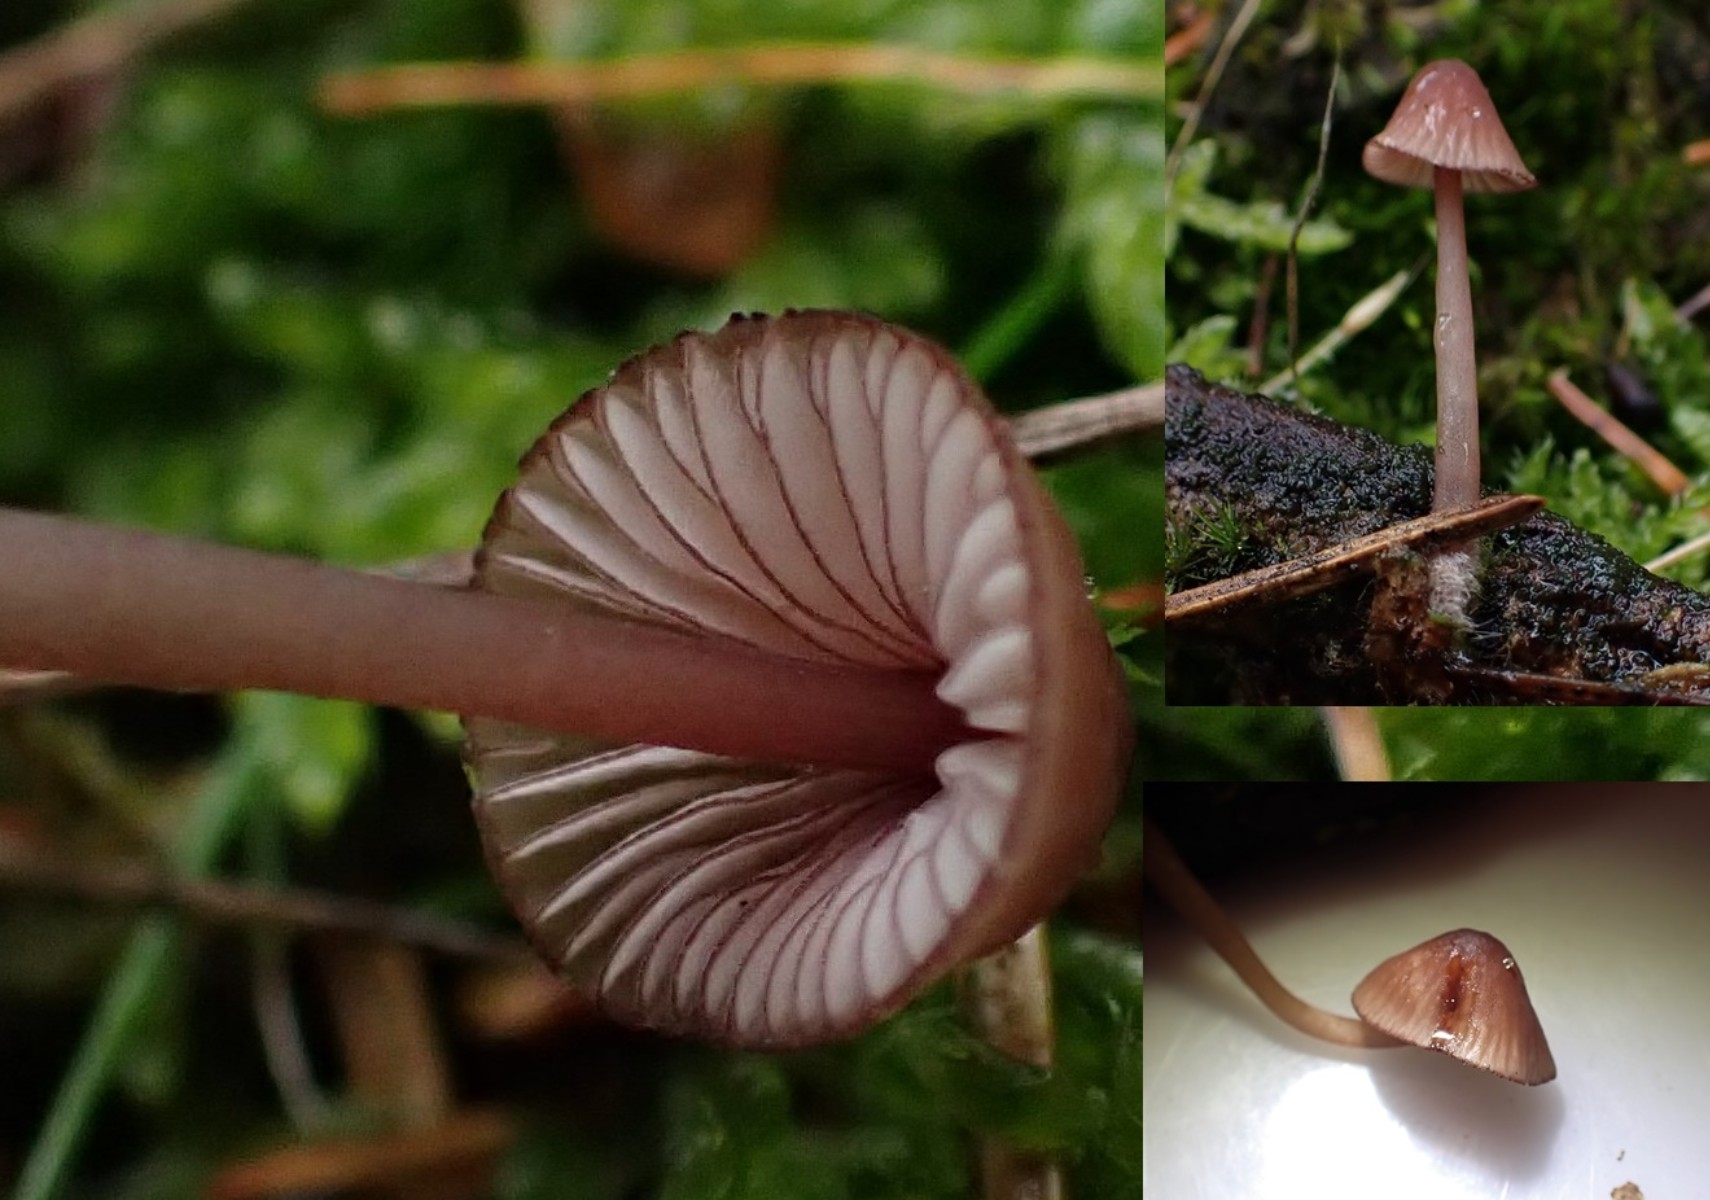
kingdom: Fungi
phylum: Basidiomycota
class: Agaricomycetes
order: Agaricales
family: Mycenaceae
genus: Mycena
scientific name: Mycena sanguinolenta
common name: rødmælket huesvamp
